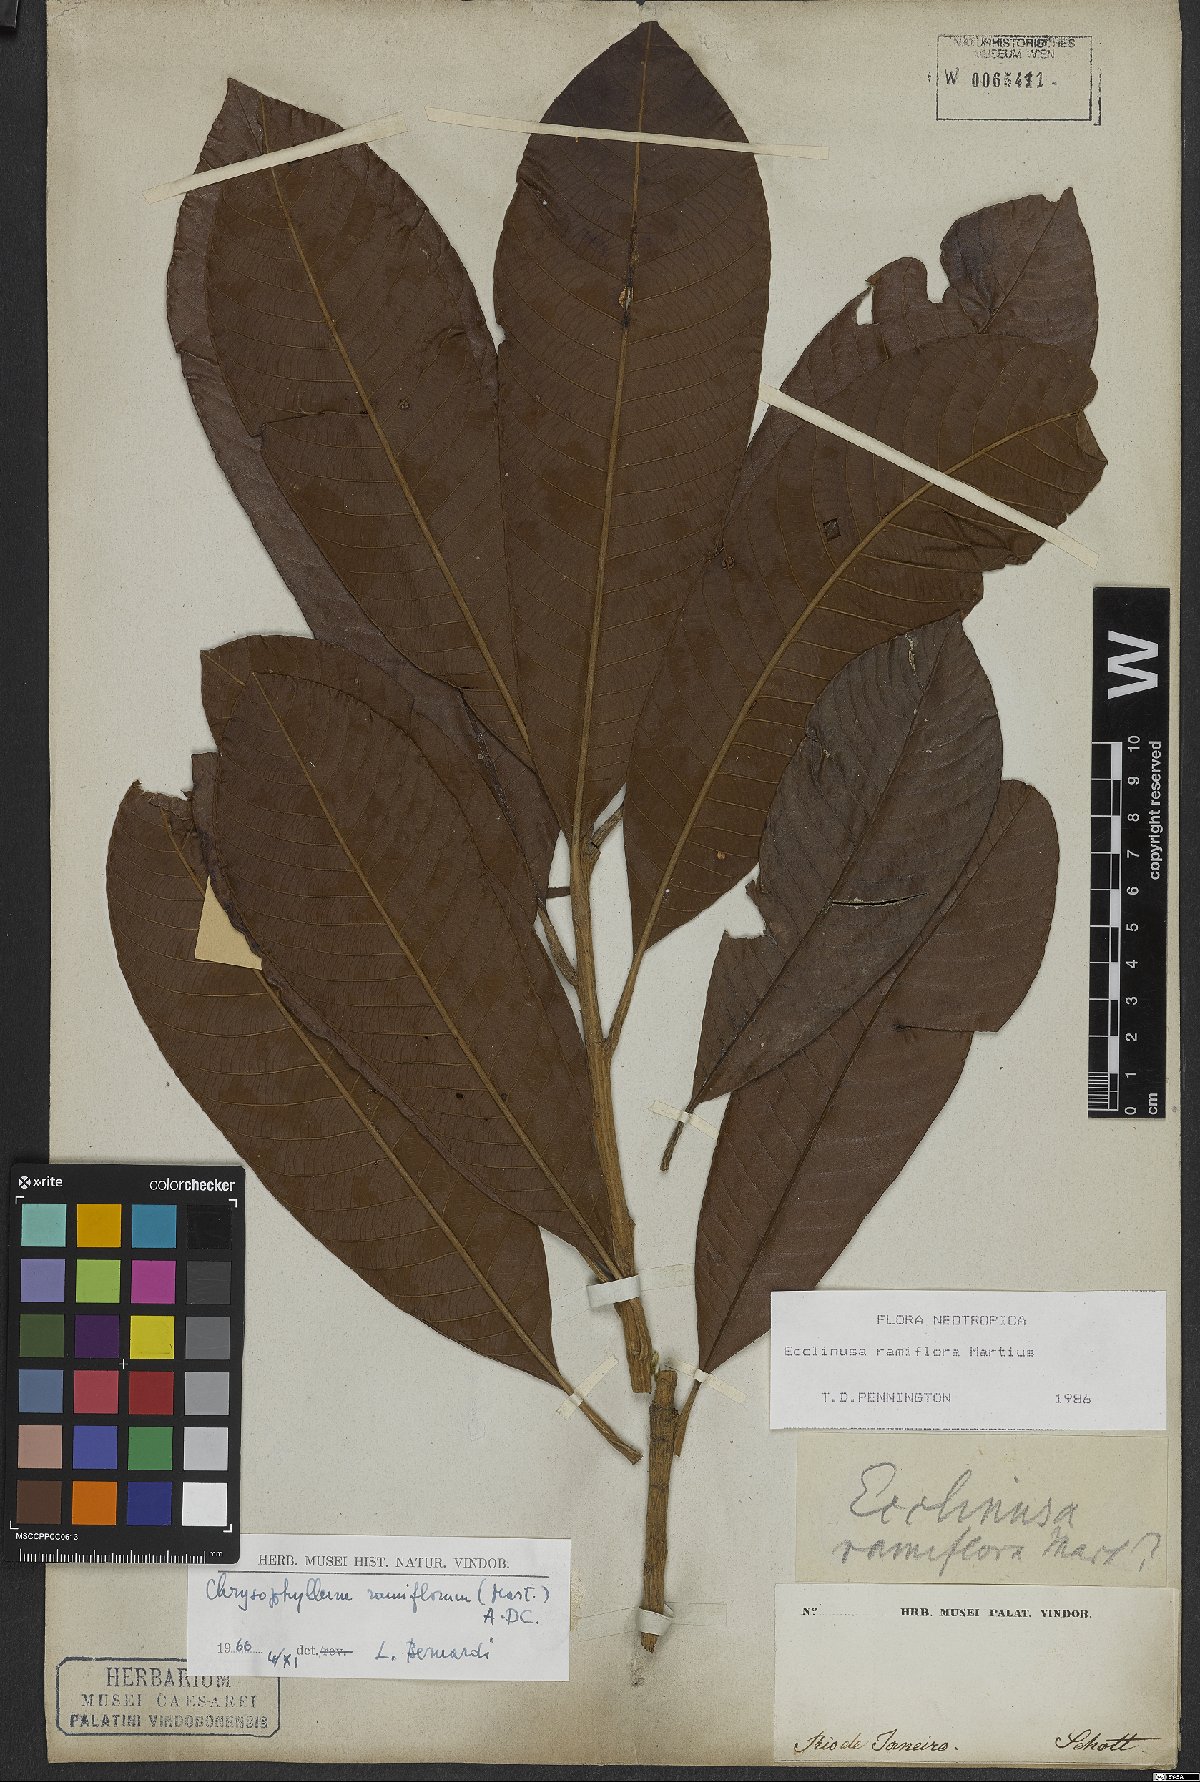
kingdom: Plantae
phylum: Tracheophyta
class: Magnoliopsida
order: Ericales
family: Sapotaceae
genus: Ecclinusa
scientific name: Ecclinusa ramiflora
